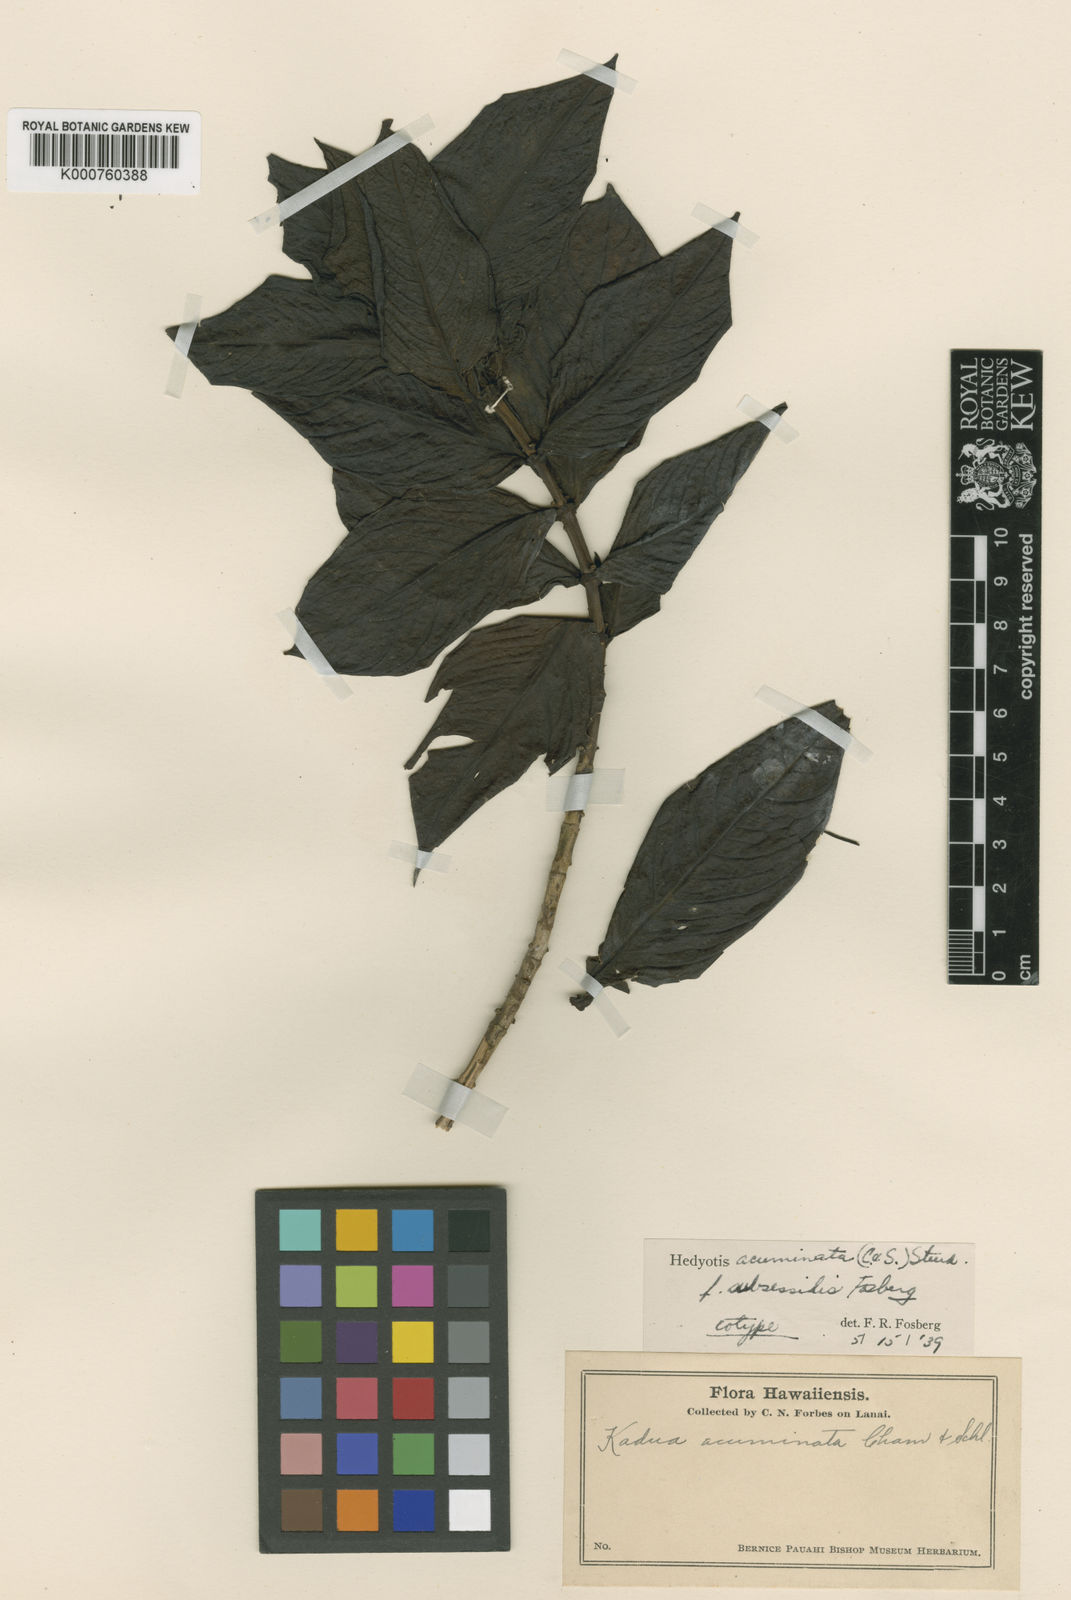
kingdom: Plantae
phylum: Tracheophyta
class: Magnoliopsida
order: Gentianales
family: Rubiaceae
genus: Kadua
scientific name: Kadua acuminata
